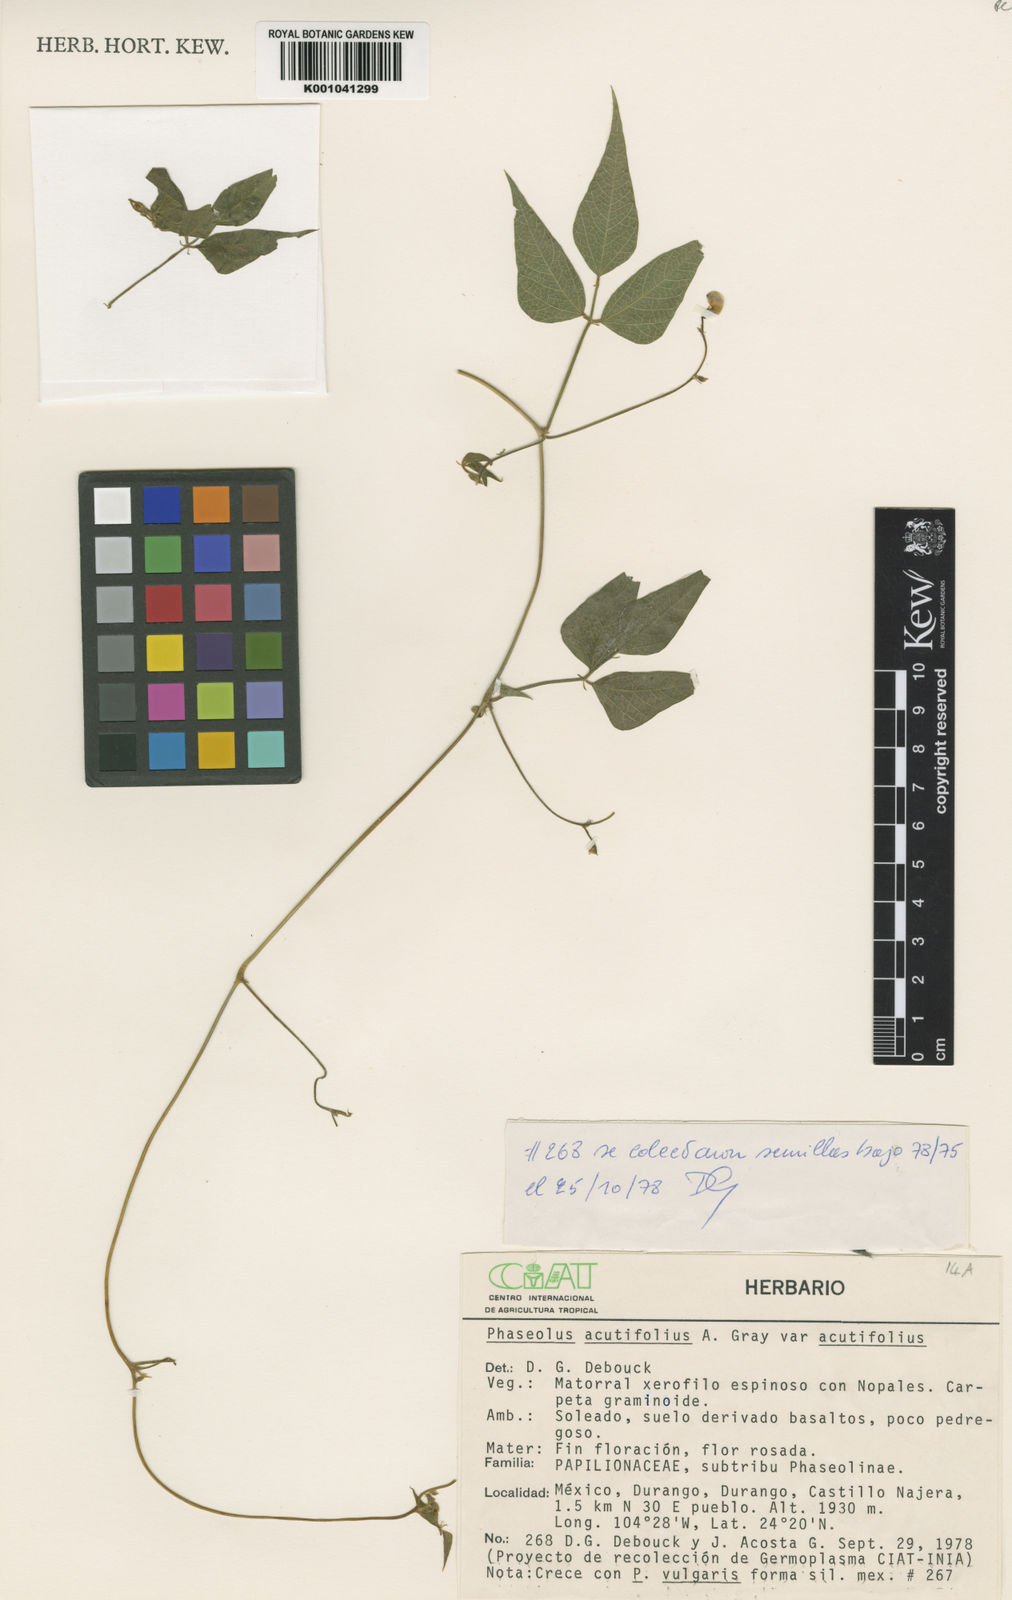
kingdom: Plantae
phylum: Tracheophyta
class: Magnoliopsida
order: Fabales
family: Fabaceae
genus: Phaseolus
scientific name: Phaseolus acutifolius
